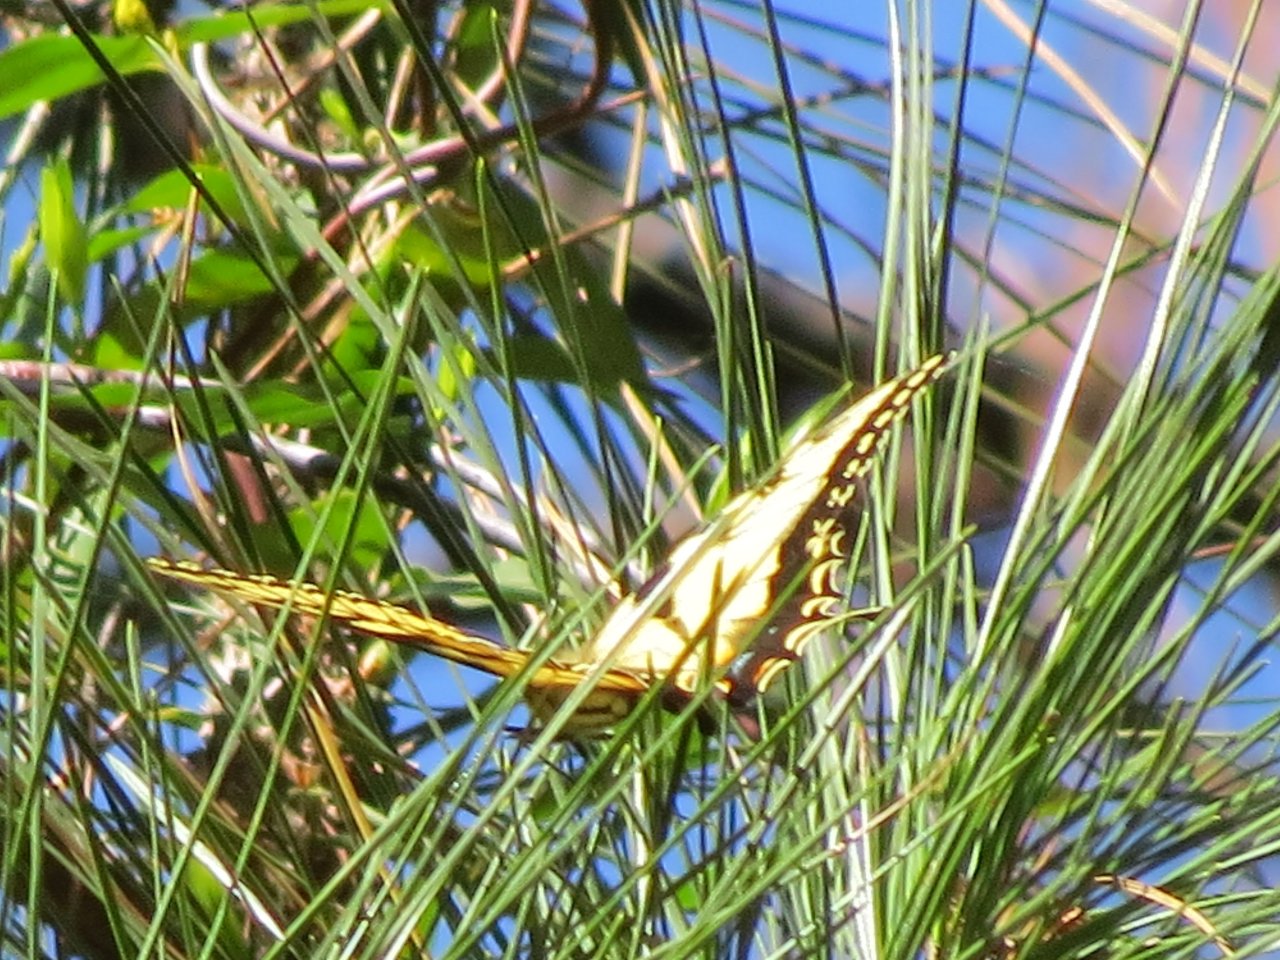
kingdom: Animalia
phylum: Arthropoda
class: Insecta
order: Lepidoptera
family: Papilionidae
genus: Pterourus
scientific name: Pterourus glaucus
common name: Eastern Tiger Swallowtail
